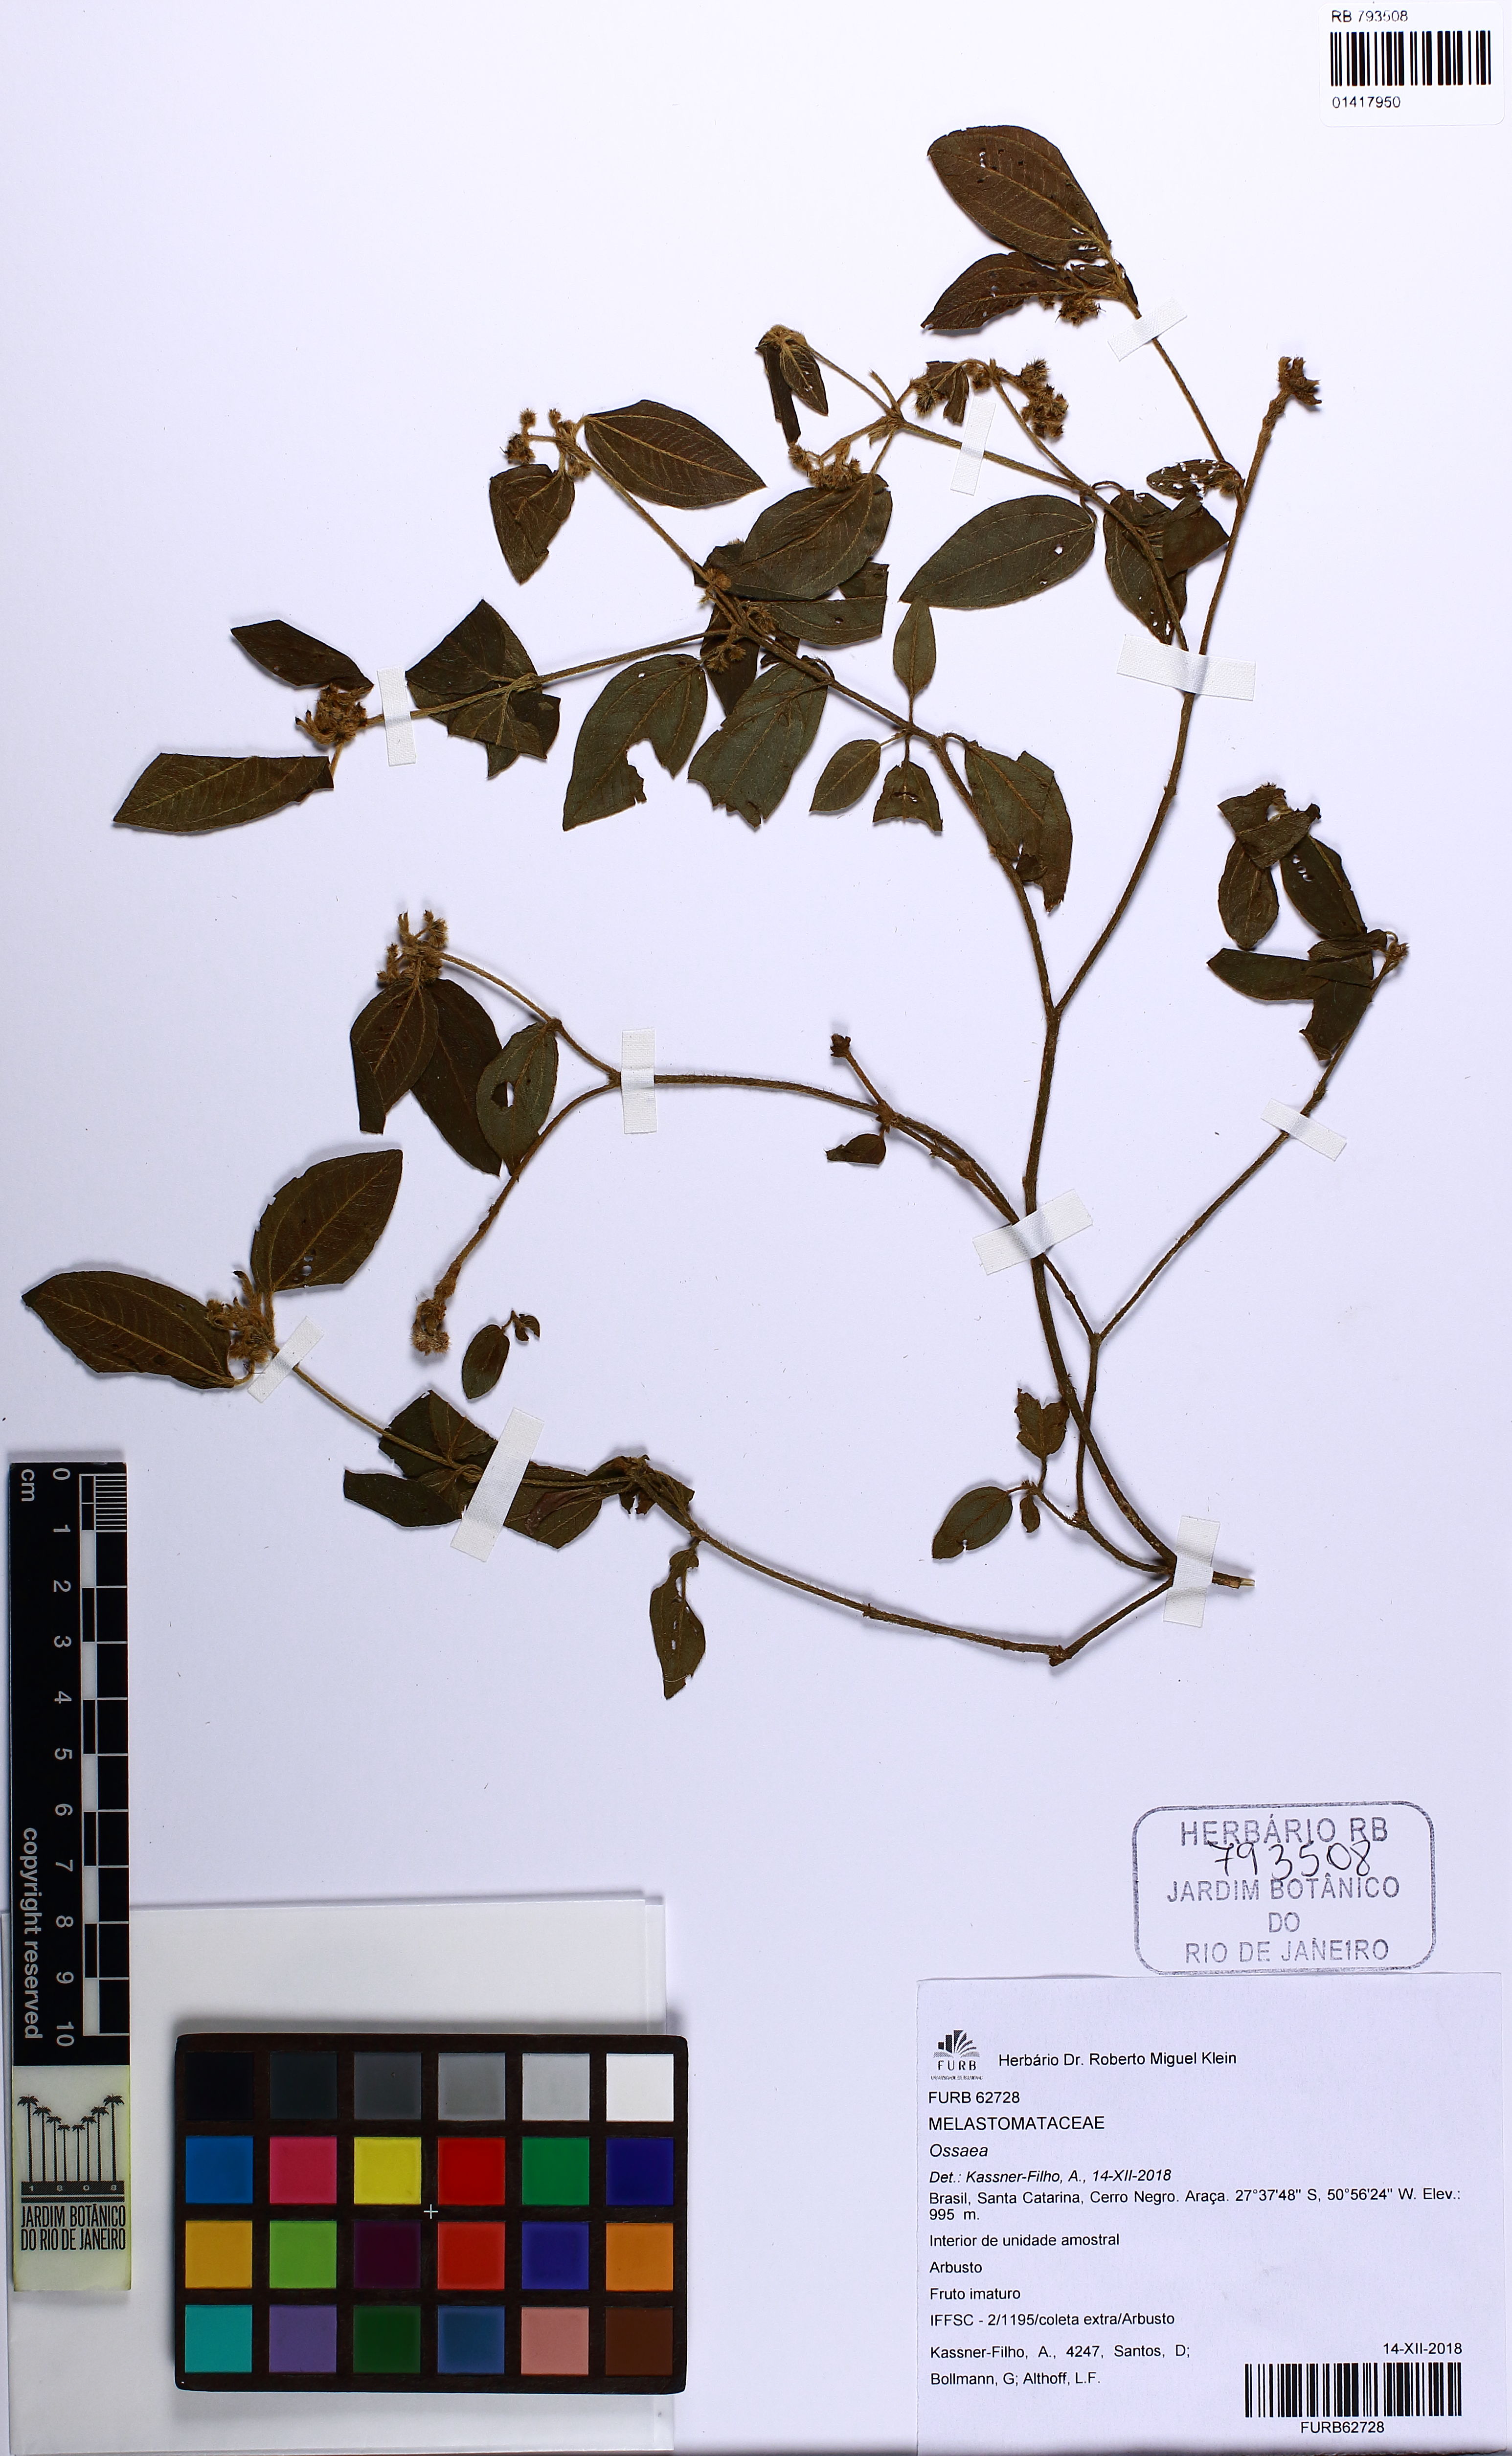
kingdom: Plantae
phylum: Tracheophyta
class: Magnoliopsida
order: Myrtales
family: Melastomataceae
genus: Ossaea
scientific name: Ossaea
